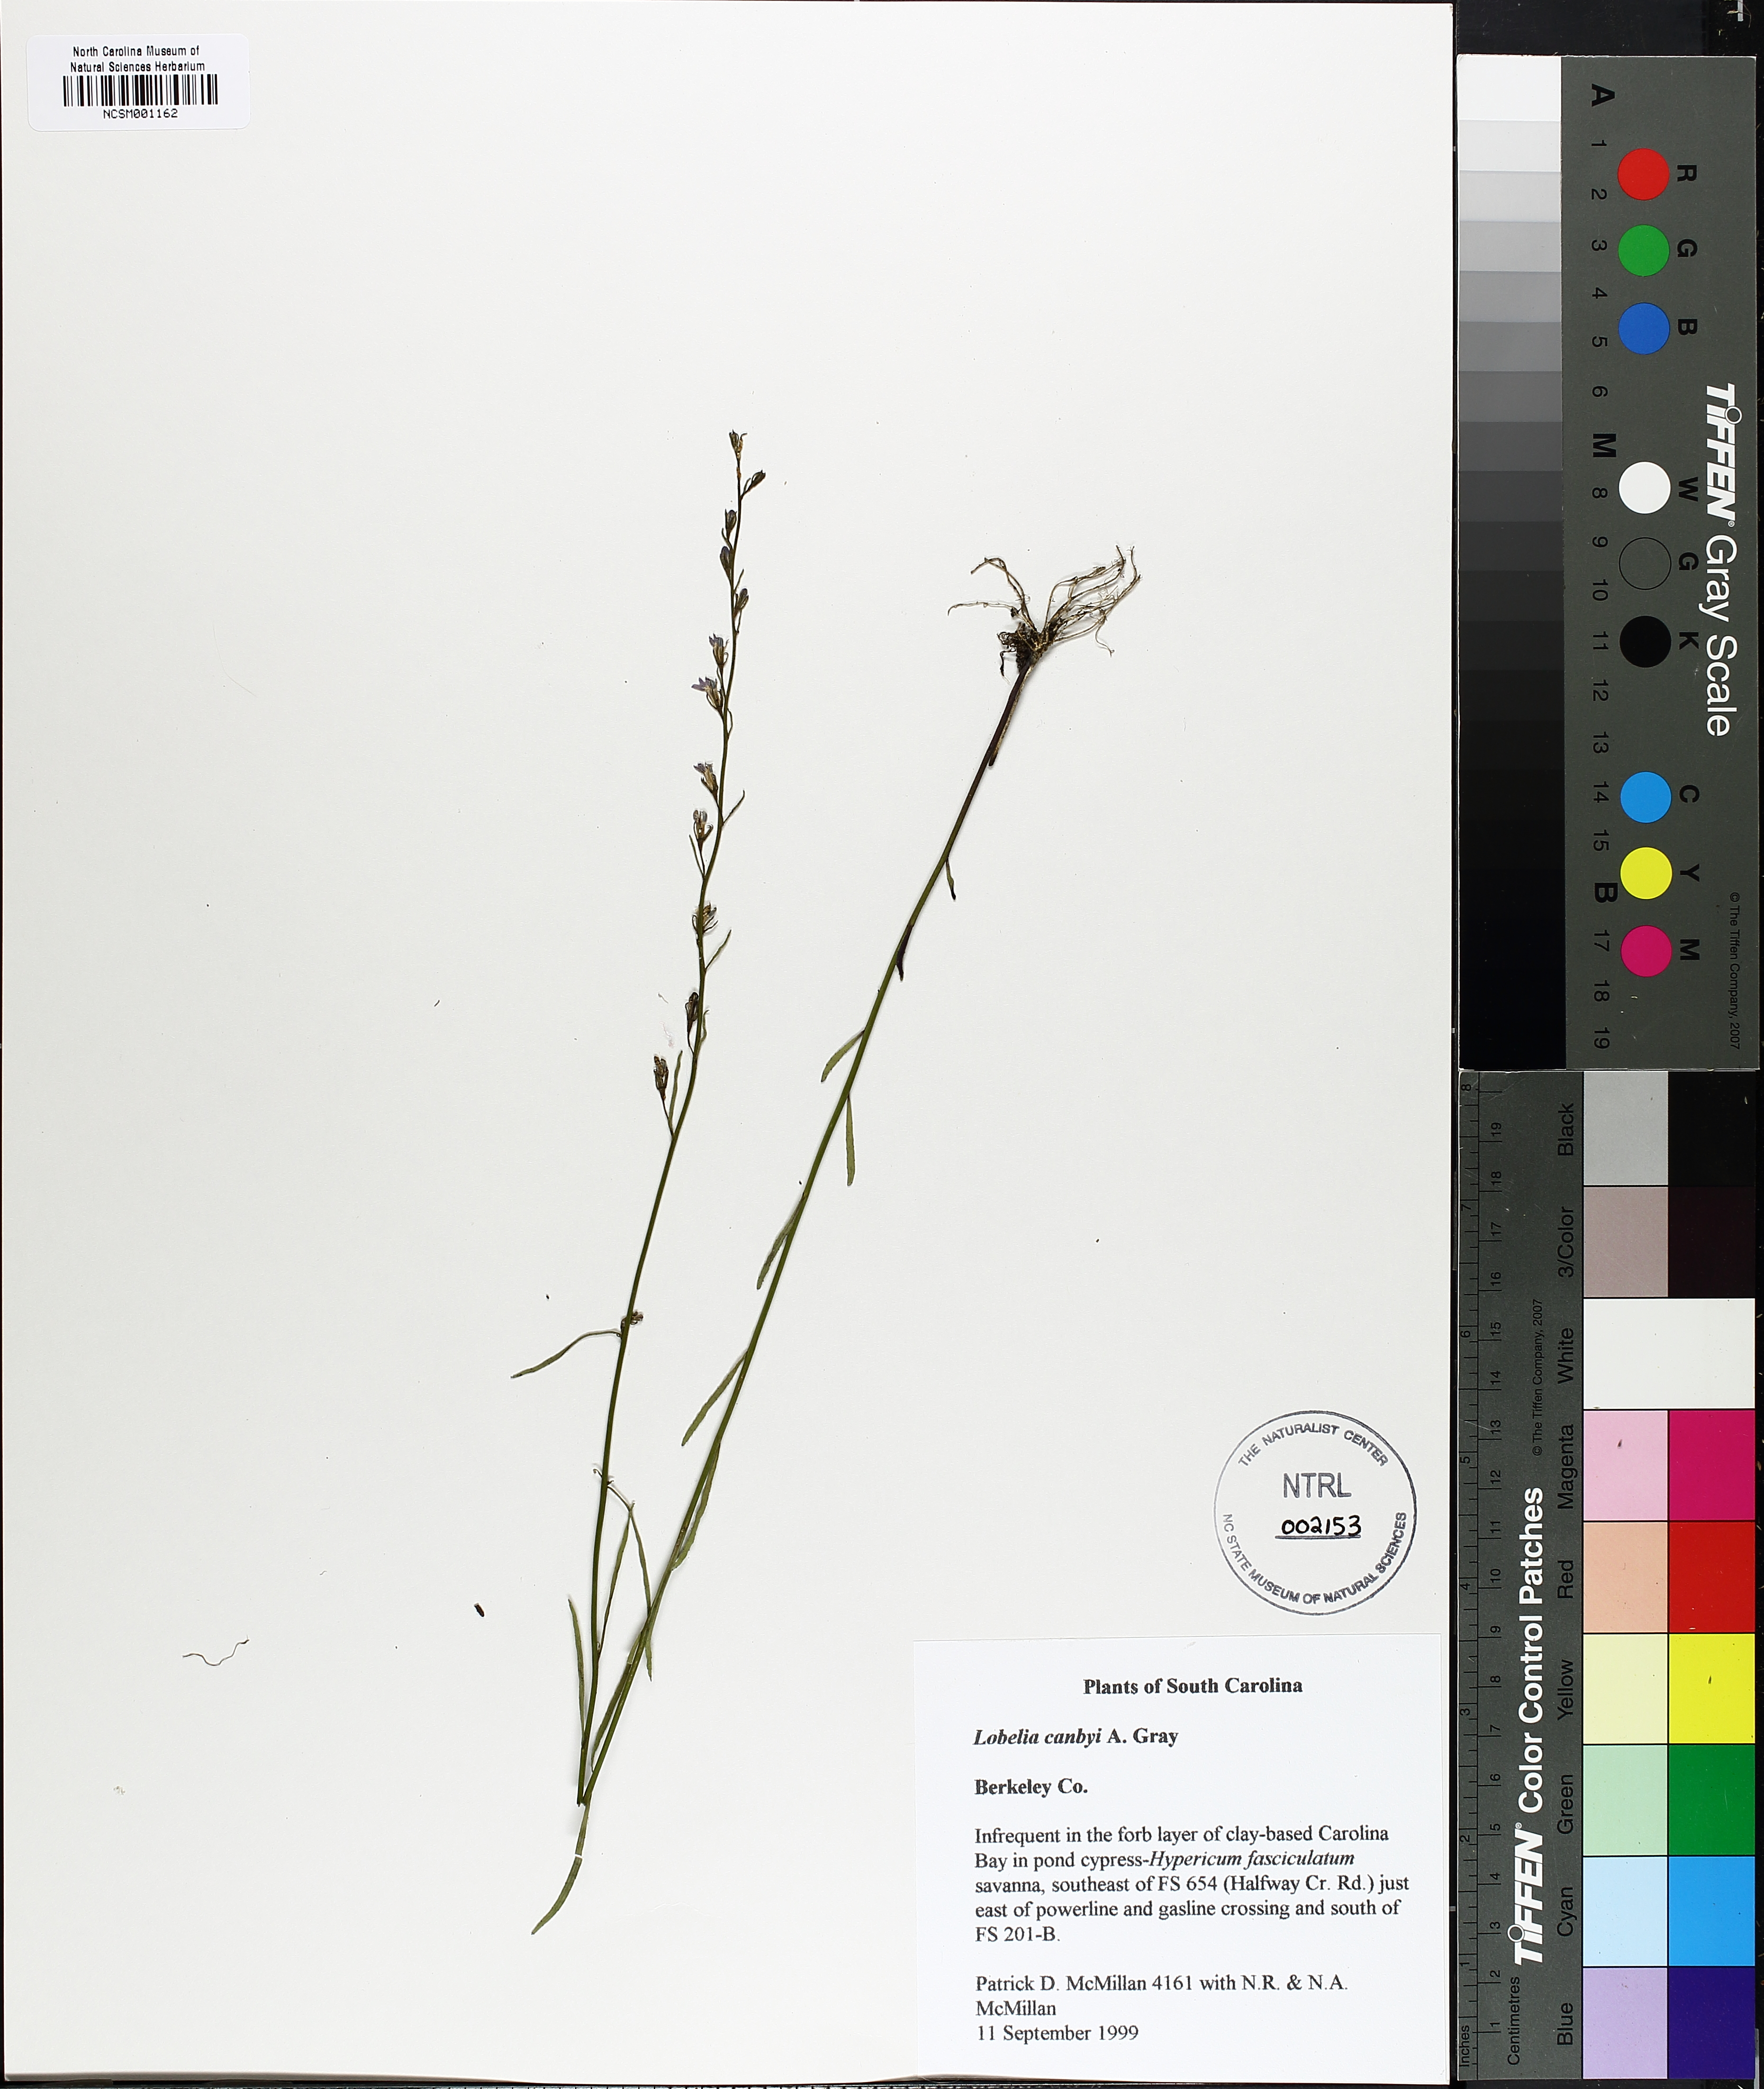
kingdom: Plantae
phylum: Tracheophyta
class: Magnoliopsida
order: Asterales
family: Campanulaceae
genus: Lobelia
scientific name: Lobelia canbyi
